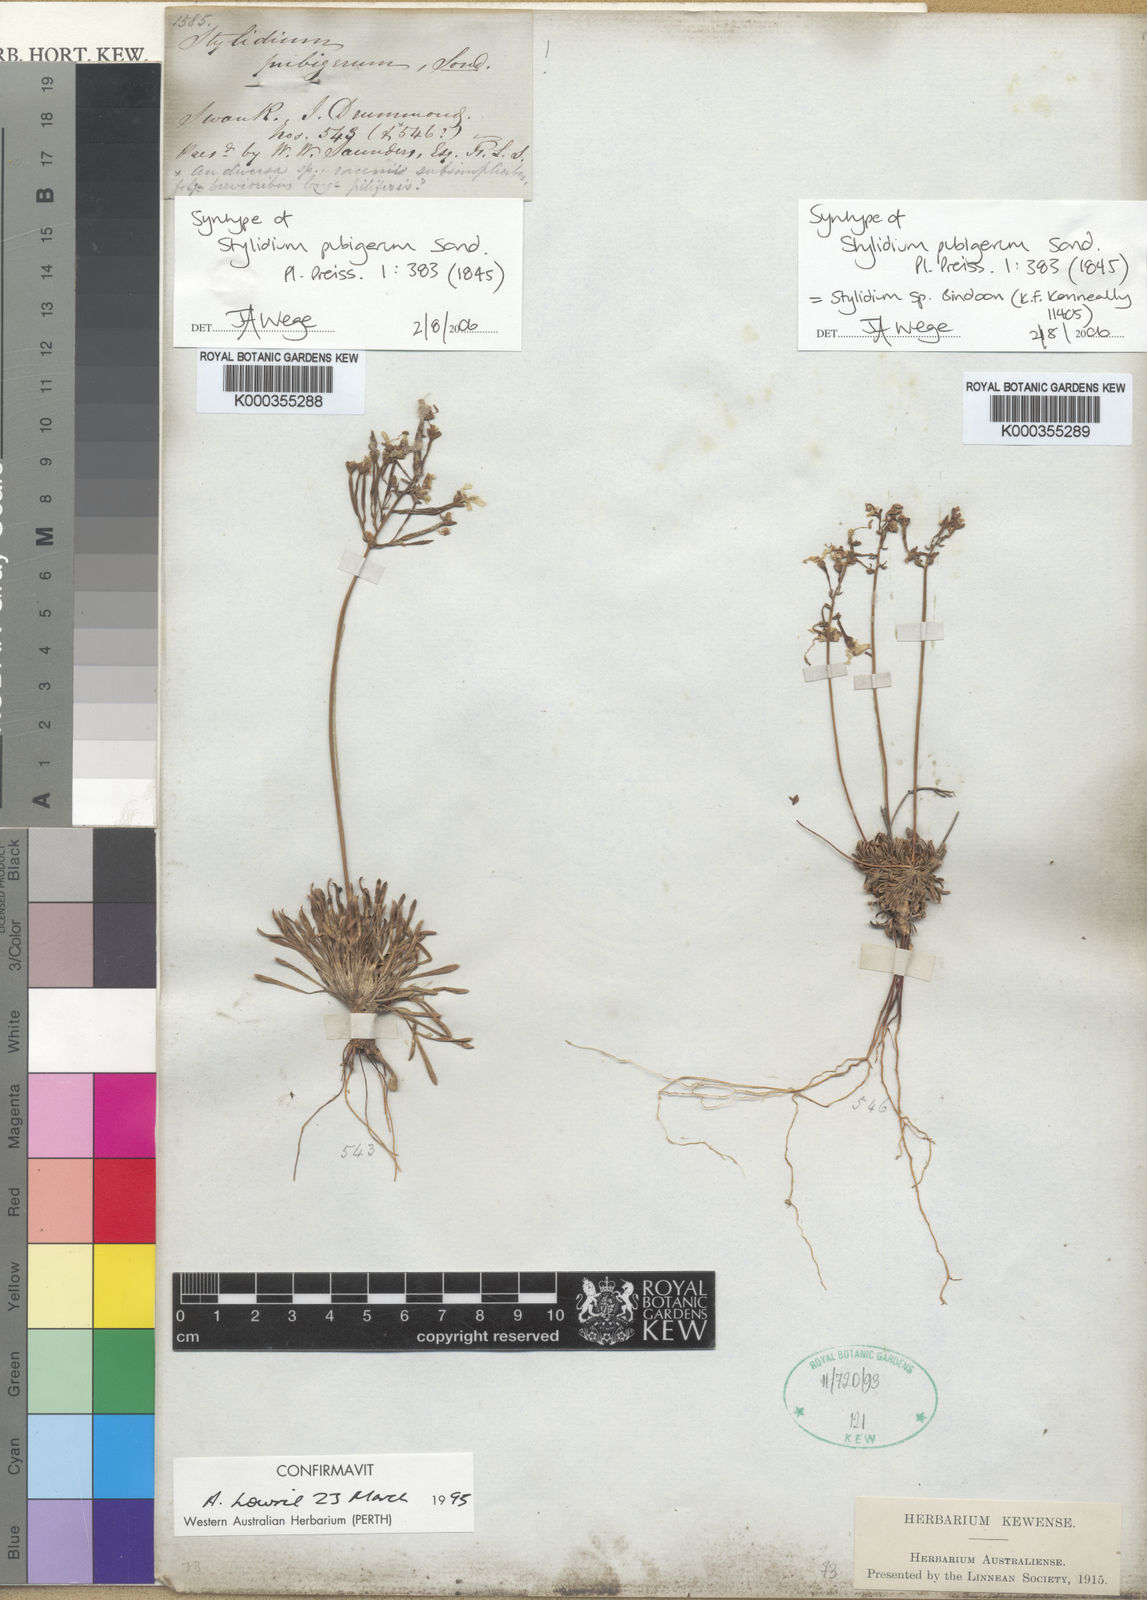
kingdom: Plantae
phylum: Tracheophyta
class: Magnoliopsida
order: Asterales
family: Stylidiaceae
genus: Stylidium
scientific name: Stylidium pubigerum
